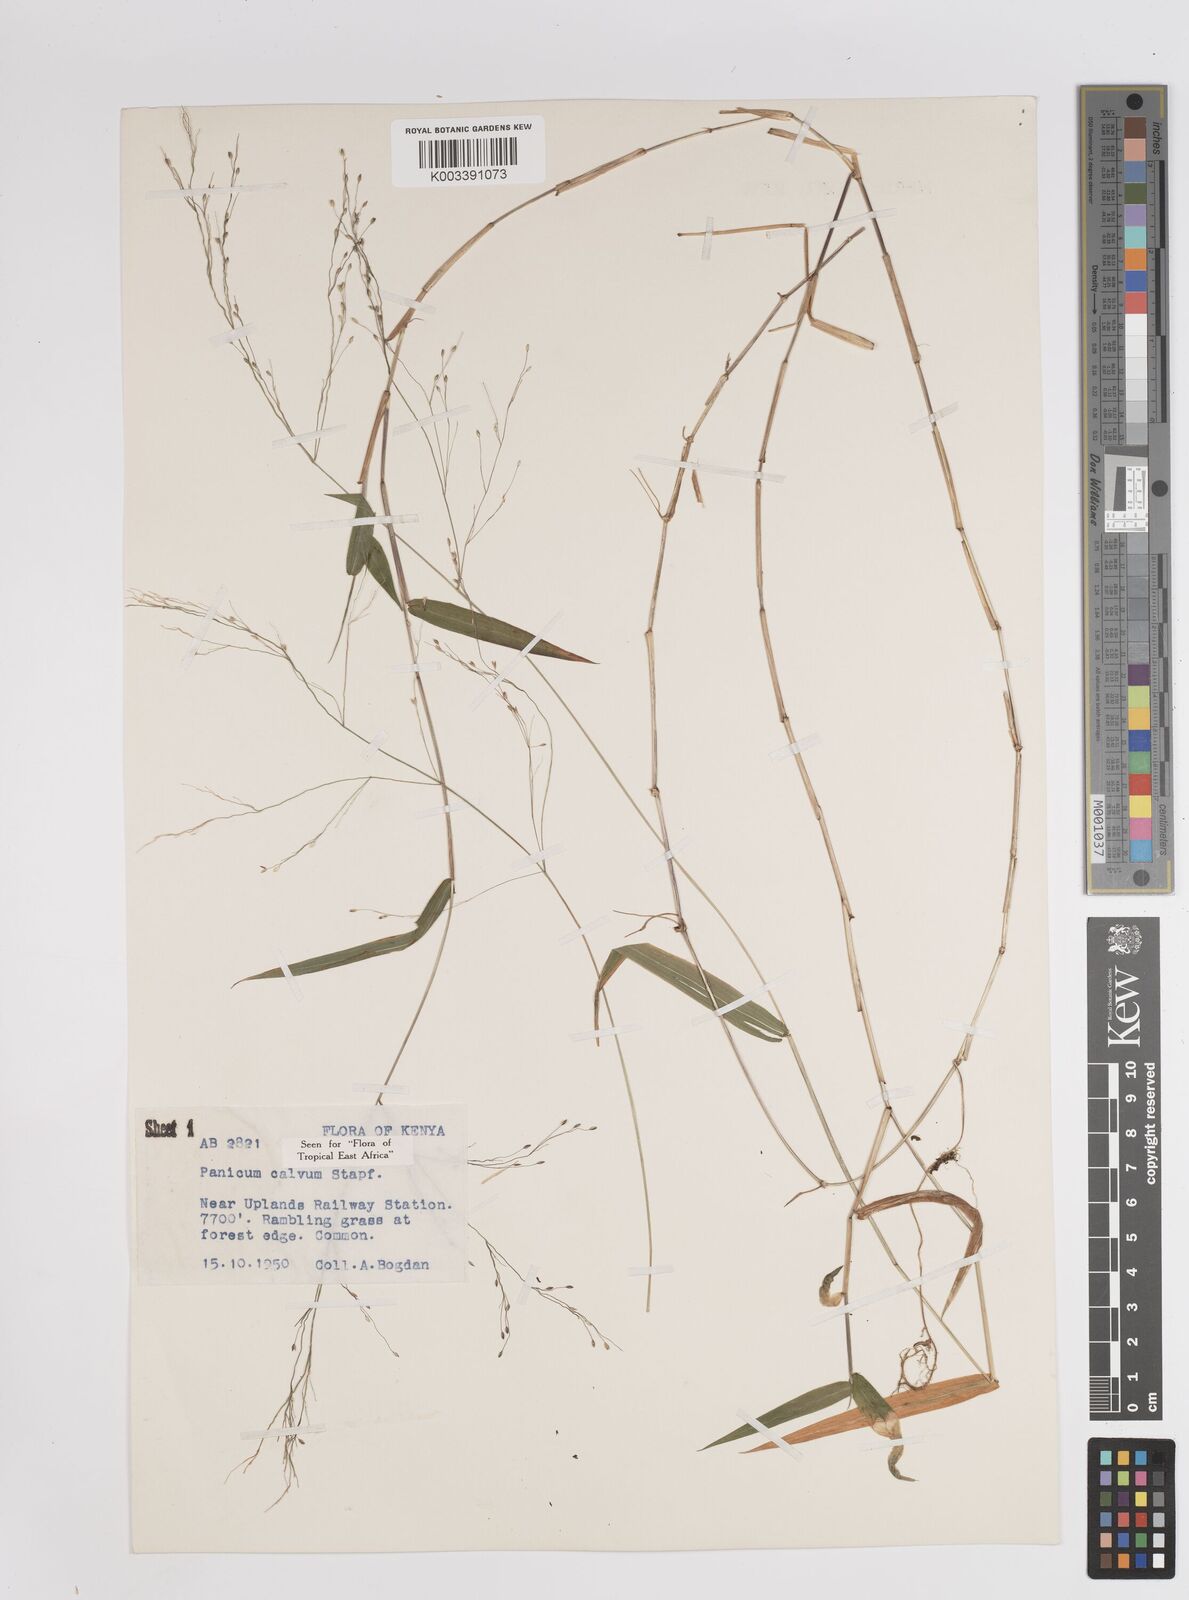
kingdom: Plantae
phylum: Tracheophyta
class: Liliopsida
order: Poales
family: Poaceae
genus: Panicum
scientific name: Panicum calvum
